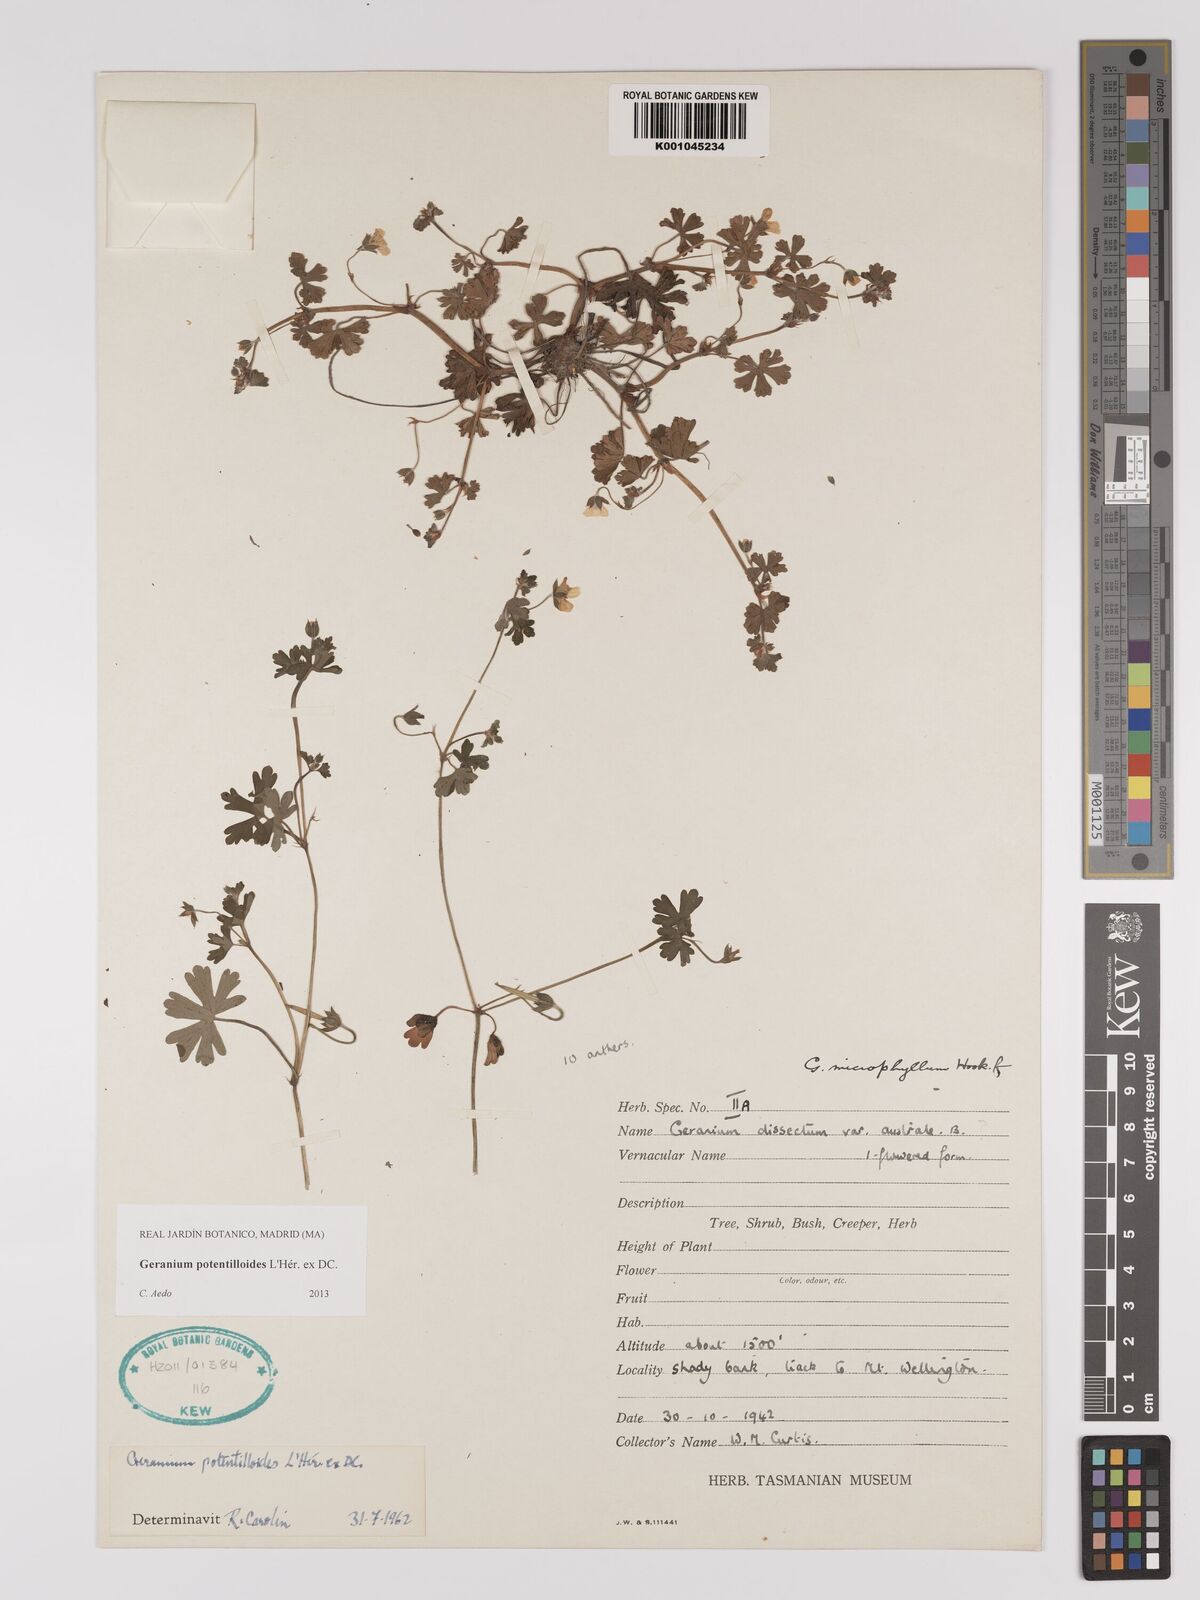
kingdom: Plantae
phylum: Tracheophyta
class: Magnoliopsida
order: Geraniales
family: Geraniaceae
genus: Geranium
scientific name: Geranium potentilloides
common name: Cinquefoil geranium
